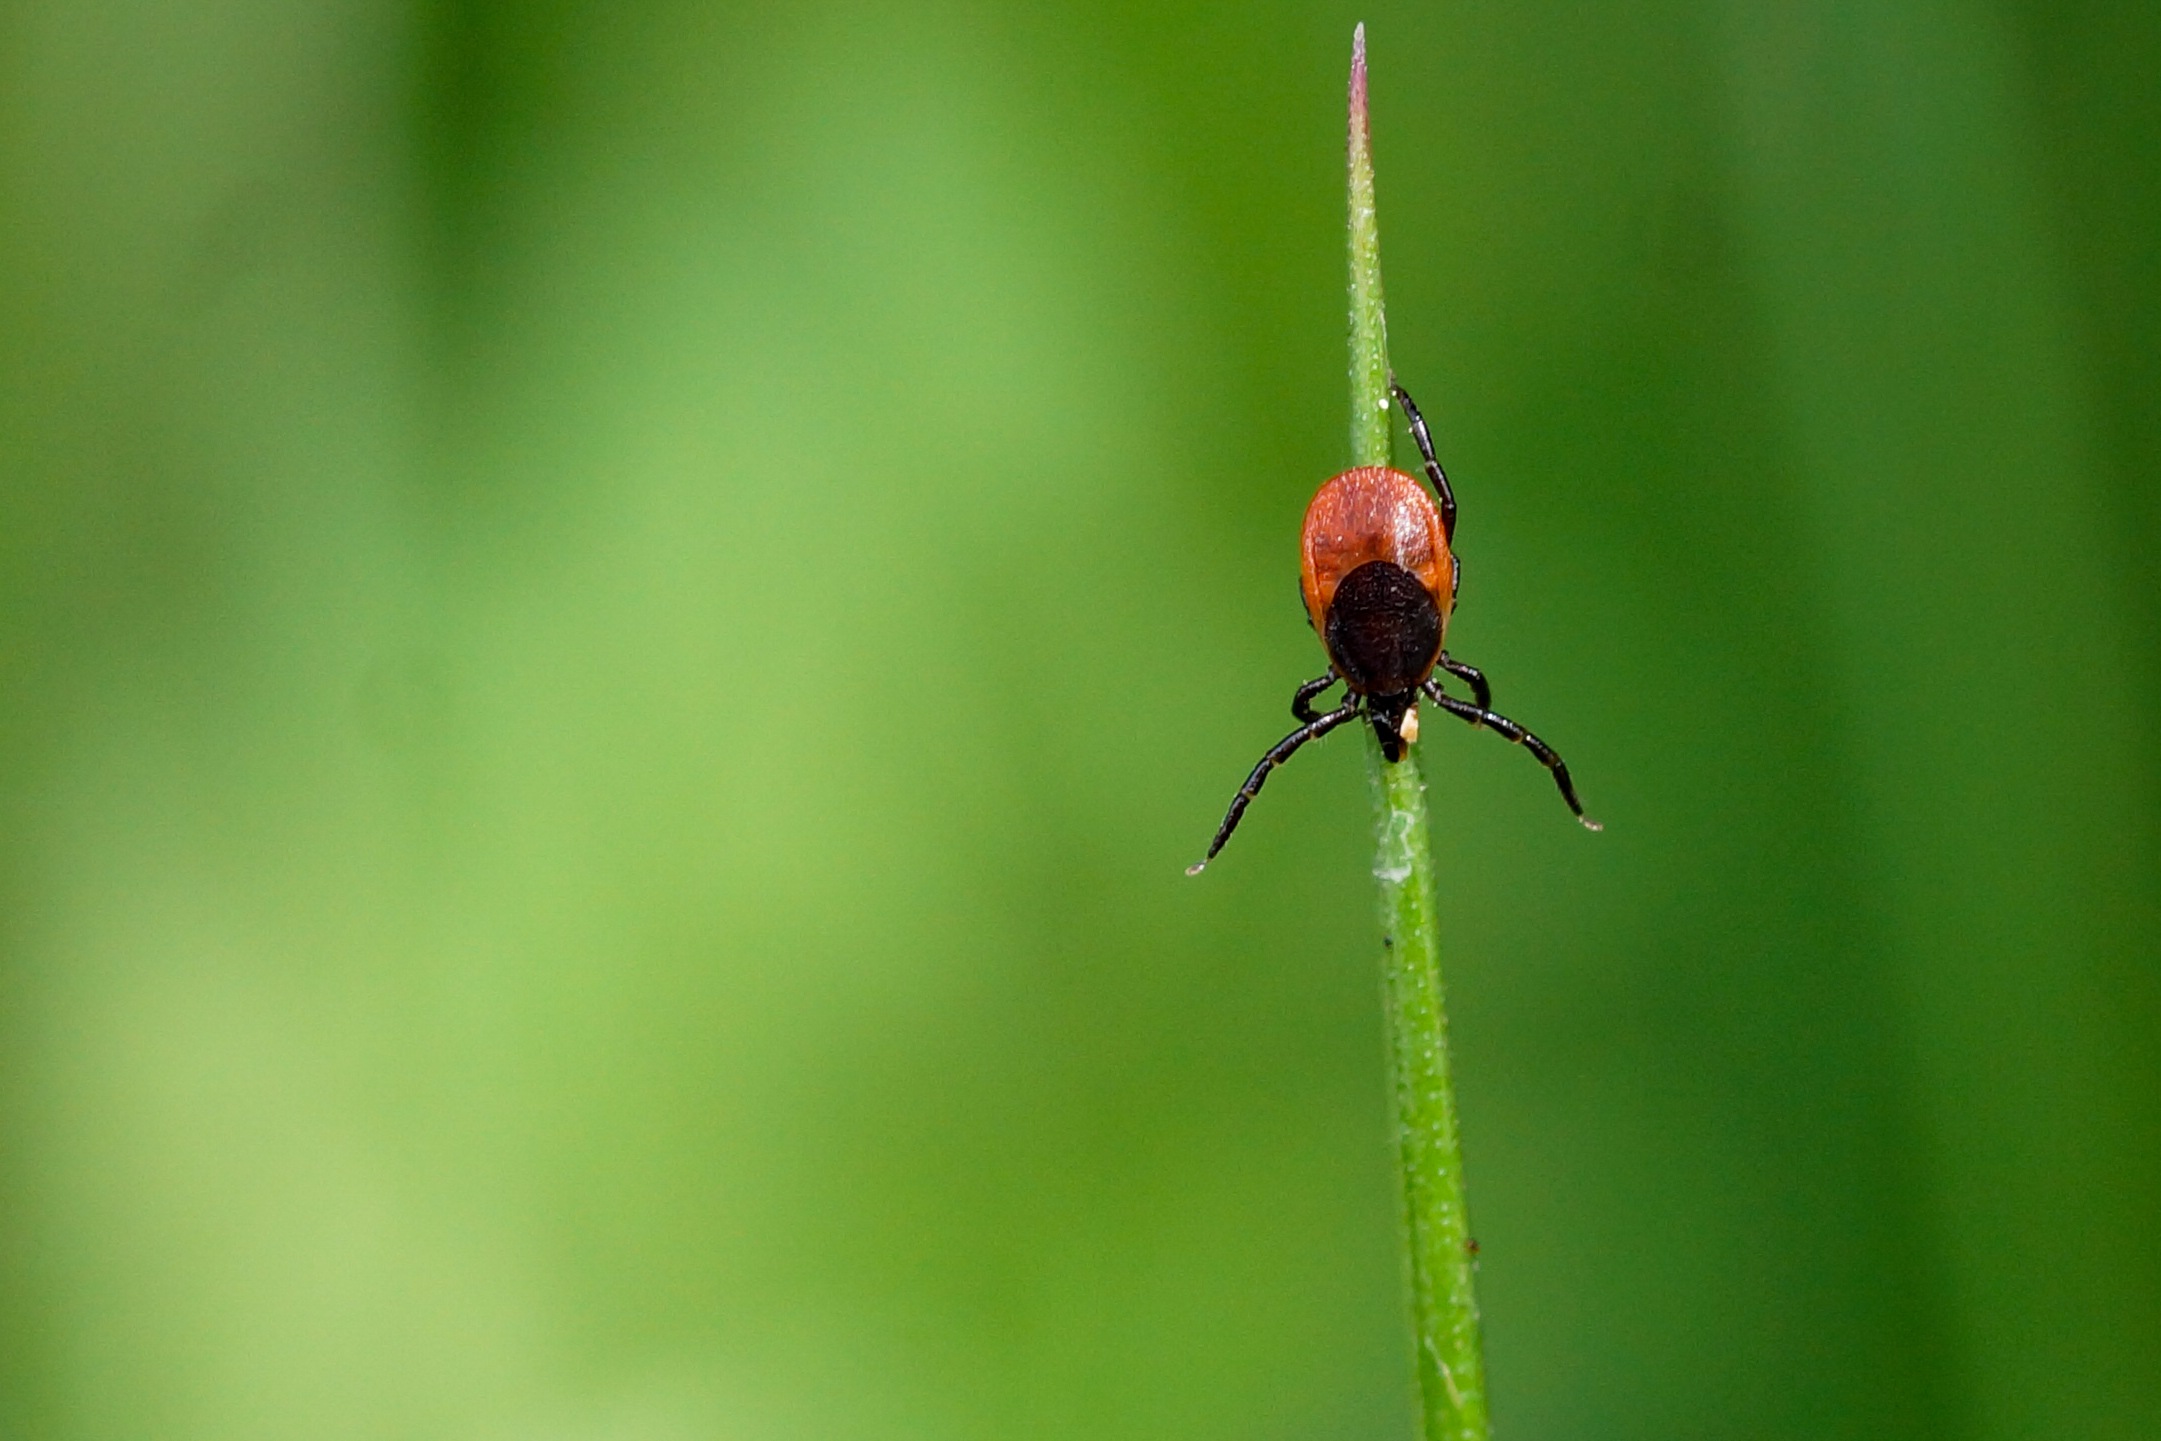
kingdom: Animalia
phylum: Arthropoda
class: Arachnida
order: Ixodida
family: Ixodidae
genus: Ixodes
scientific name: Ixodes ricinus
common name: Skovflåt
